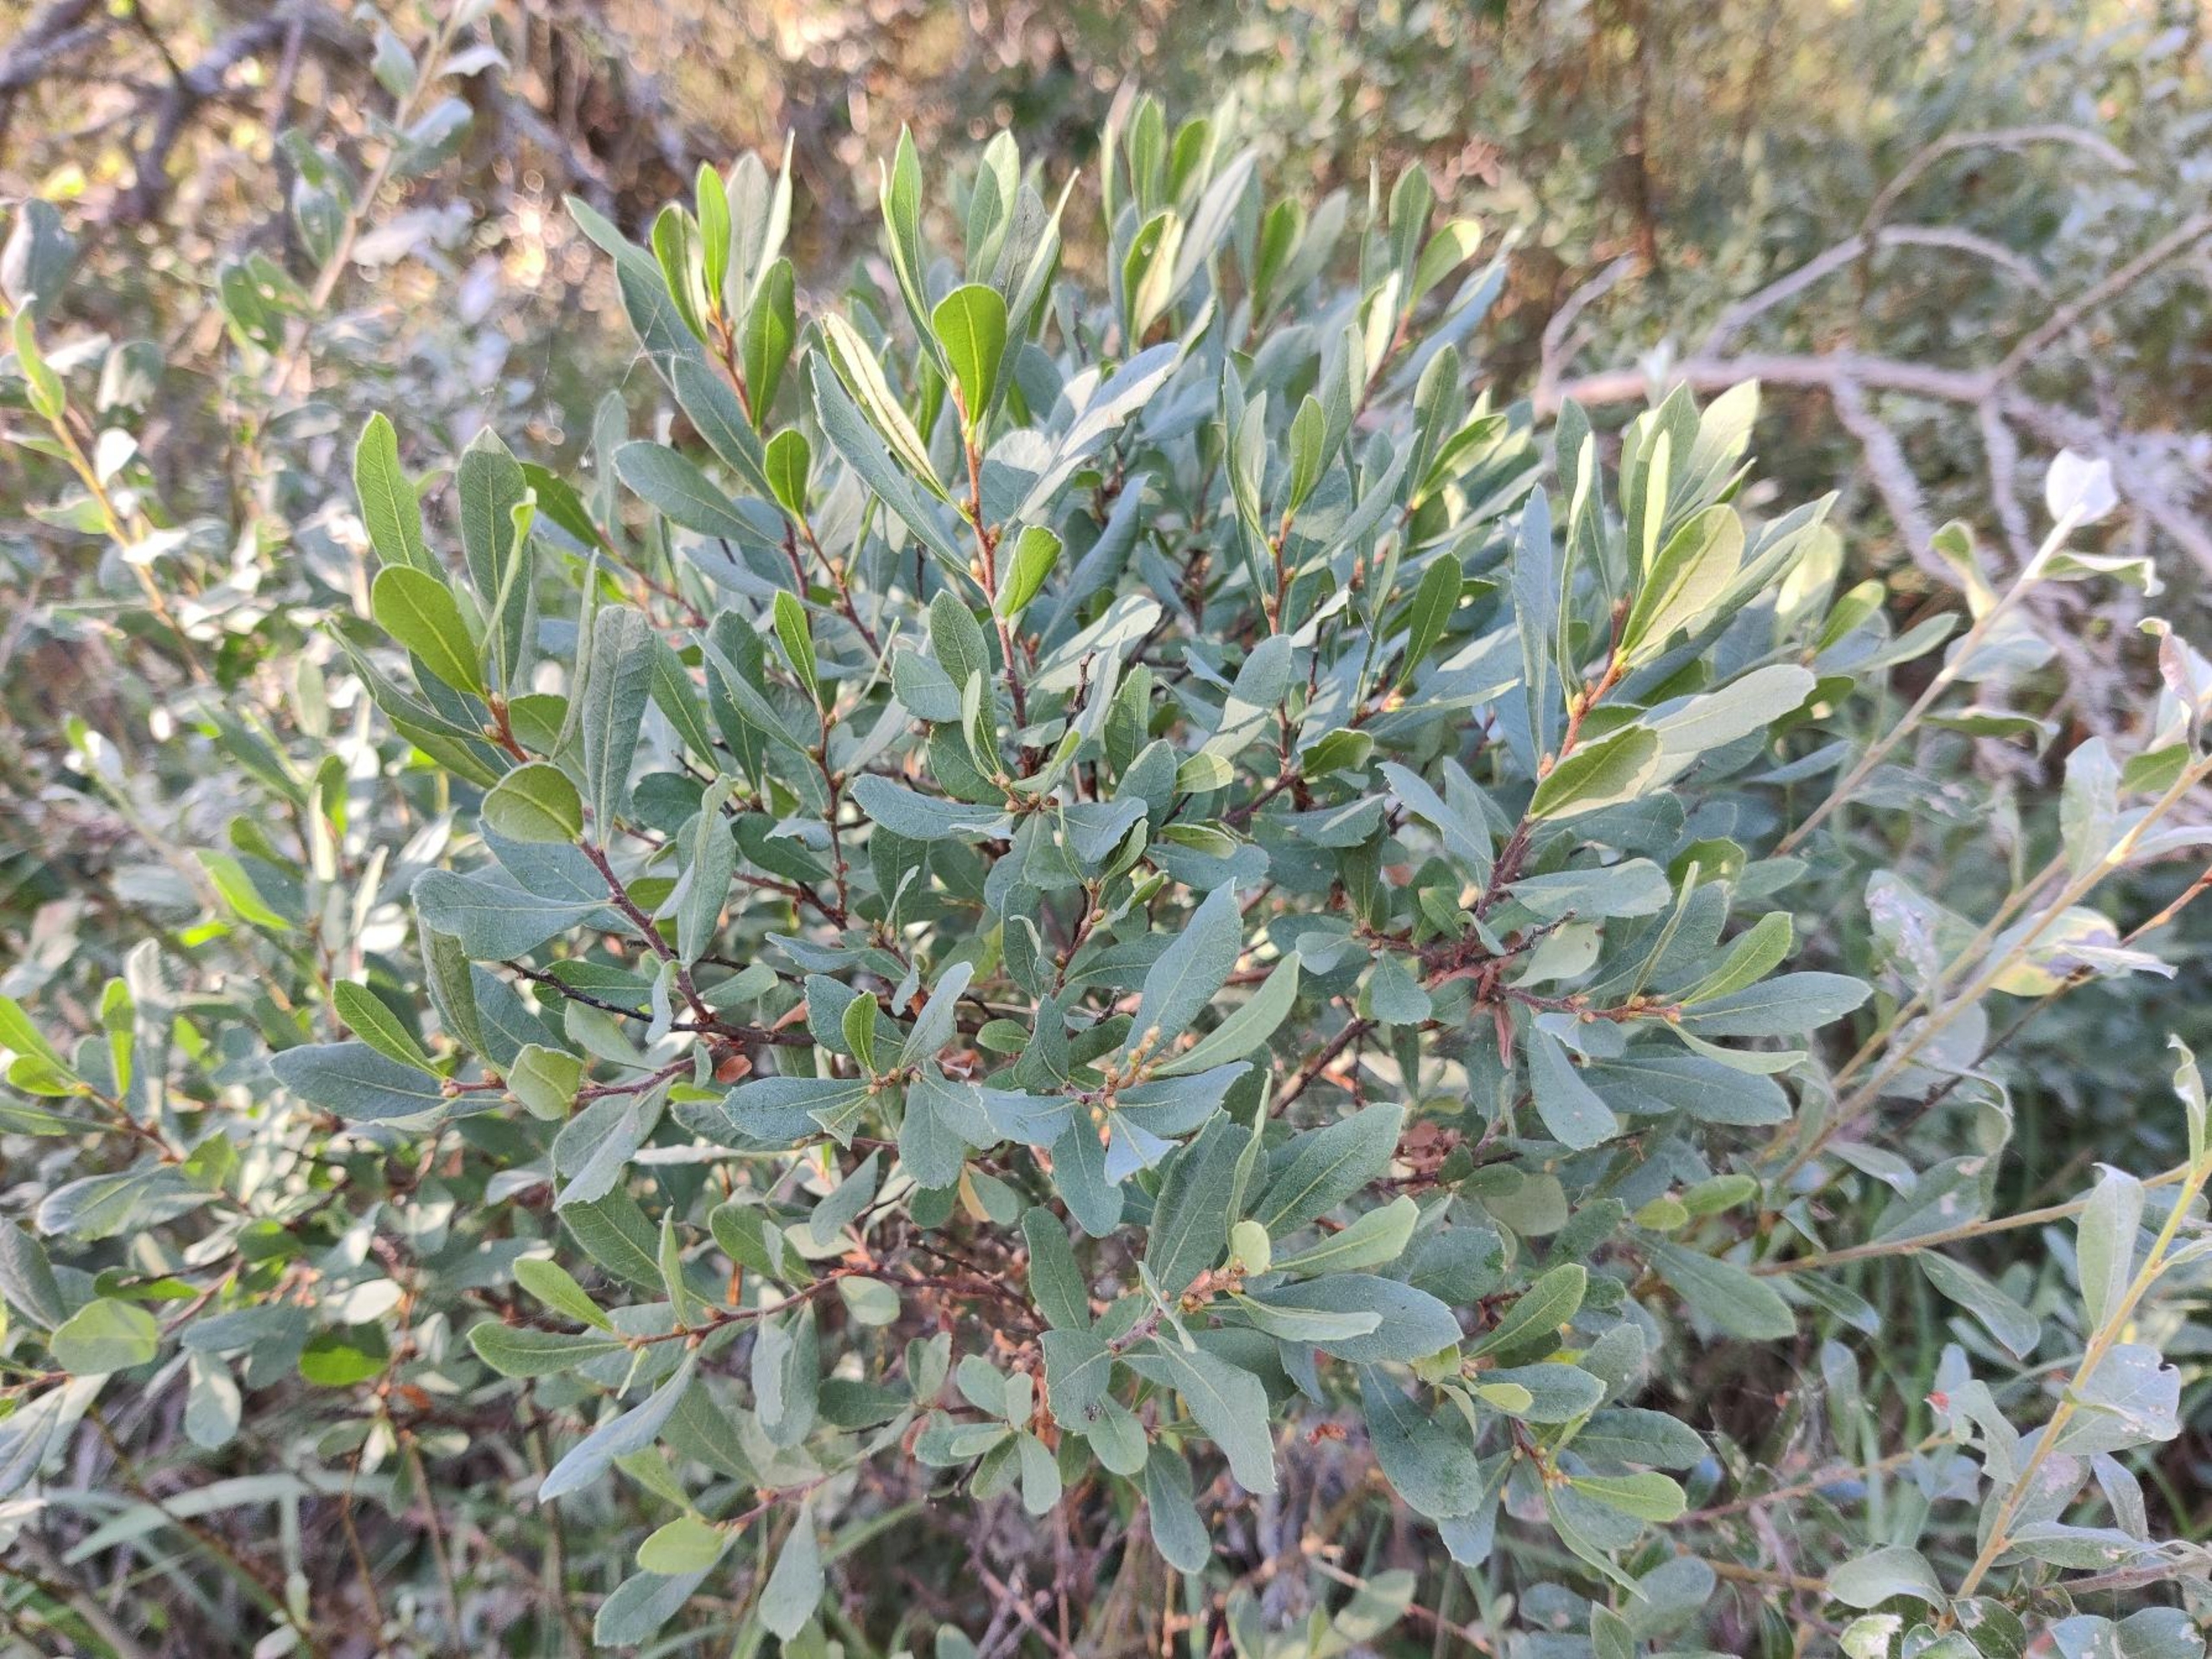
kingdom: Plantae
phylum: Tracheophyta
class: Magnoliopsida
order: Fagales
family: Myricaceae
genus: Myrica
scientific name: Myrica gale
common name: Pors
